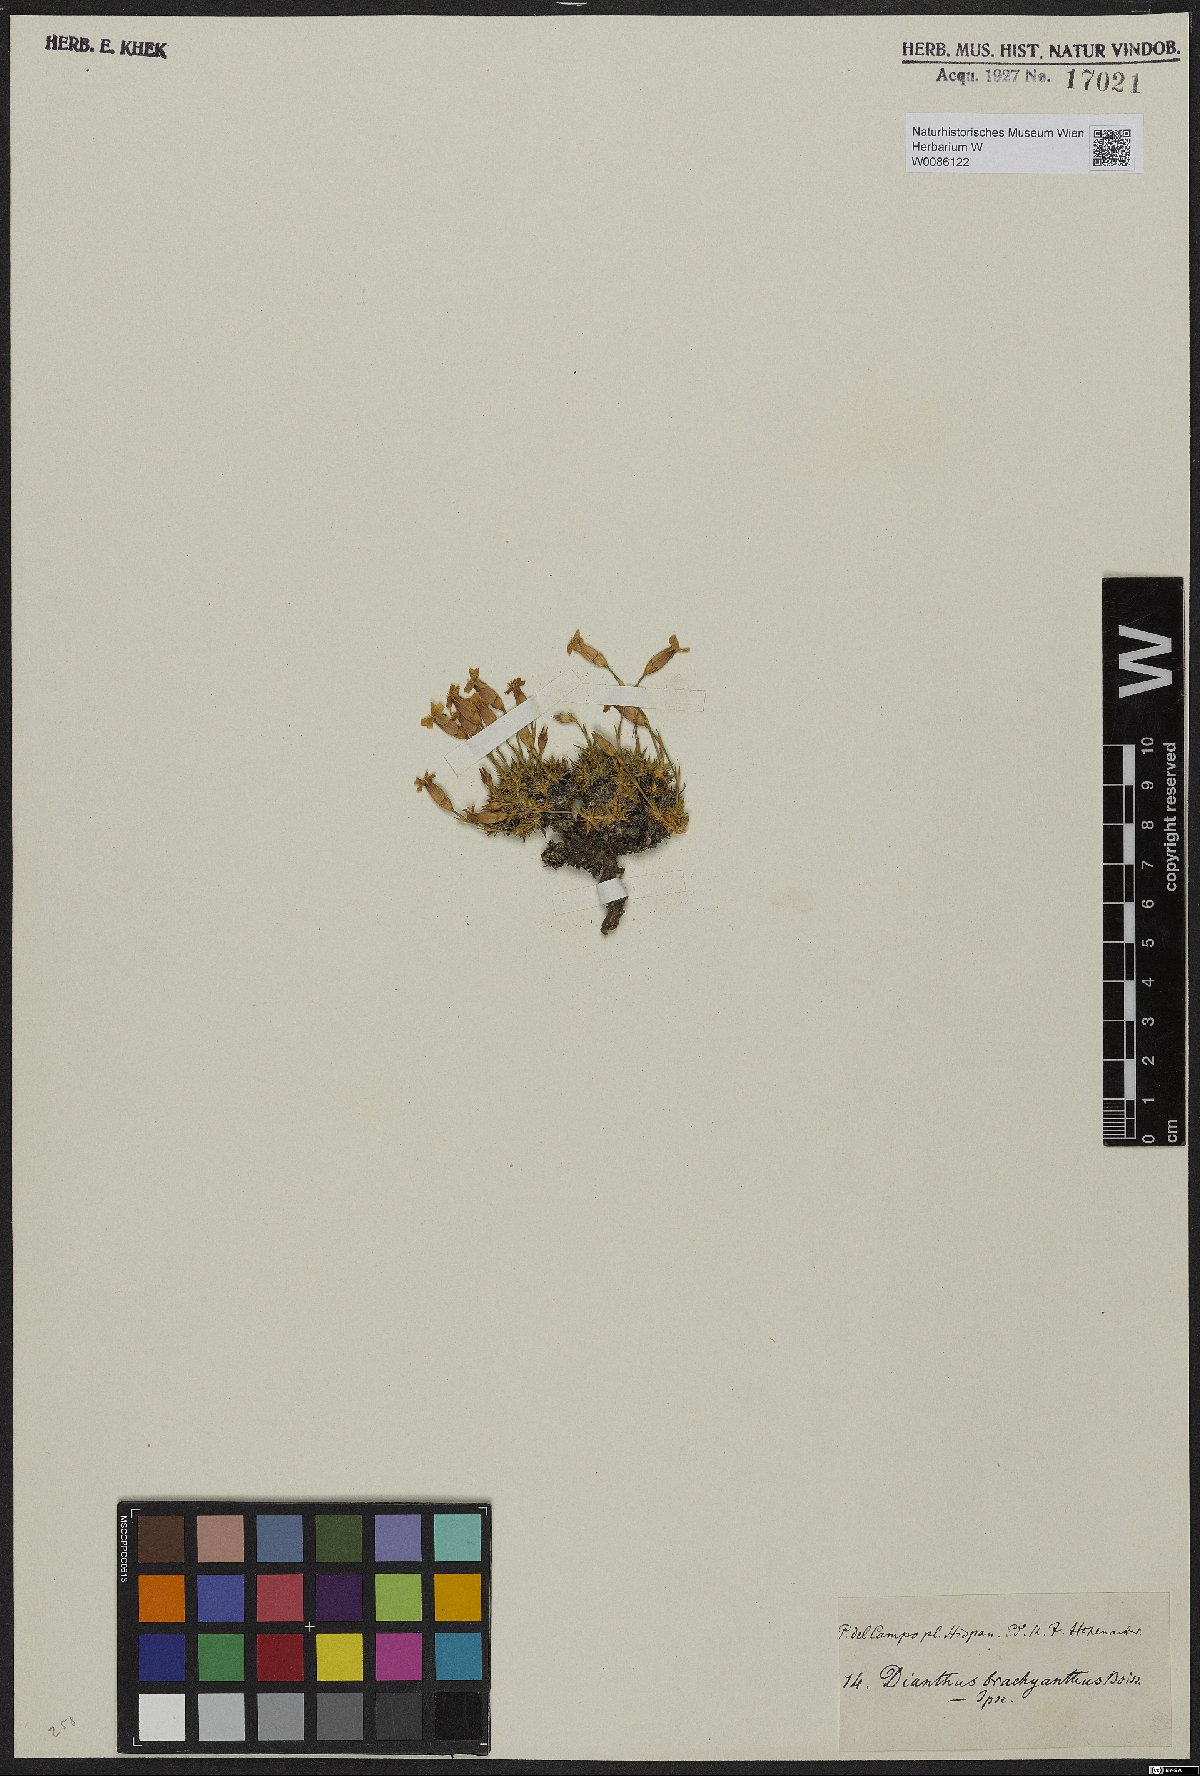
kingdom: Plantae
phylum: Tracheophyta
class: Magnoliopsida
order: Caryophyllales
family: Caryophyllaceae
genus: Dianthus
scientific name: Dianthus pungens
